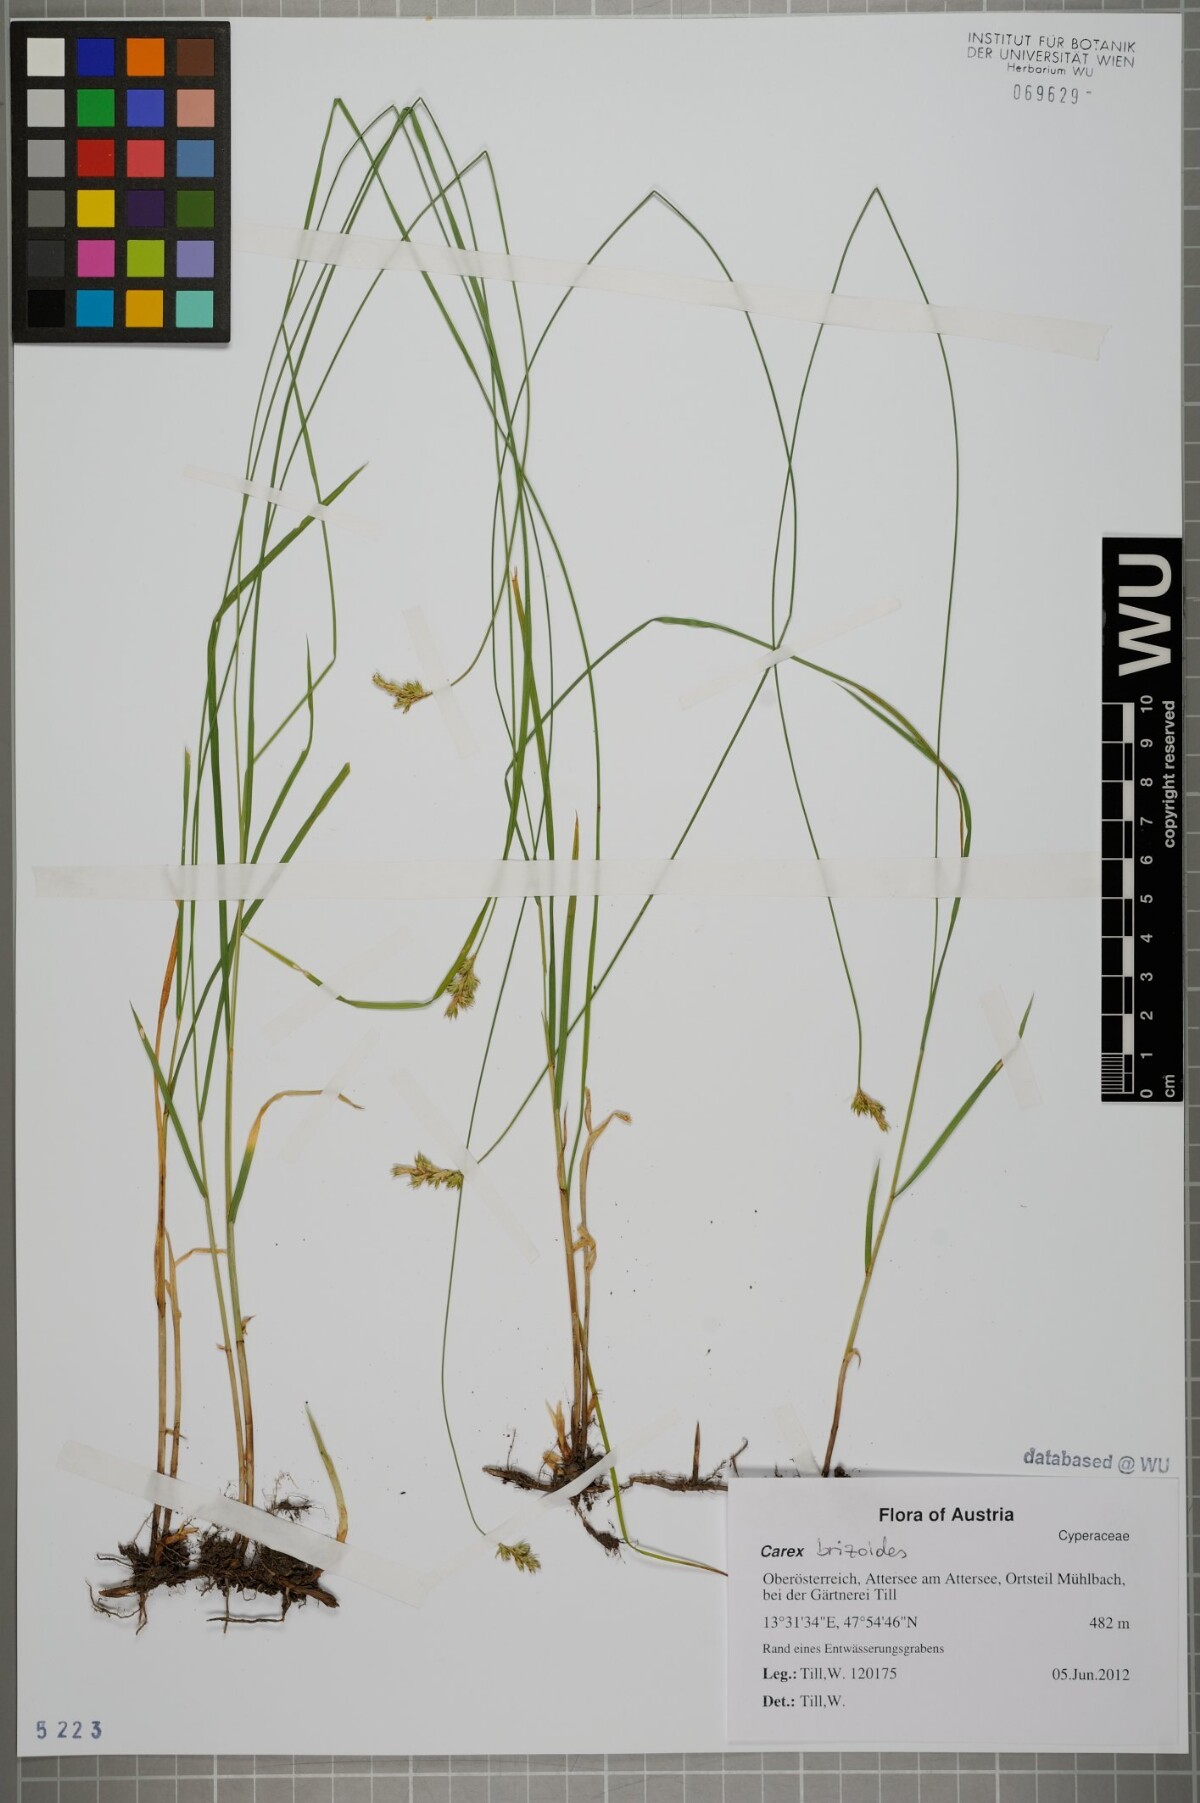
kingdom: Plantae
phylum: Tracheophyta
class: Liliopsida
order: Poales
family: Cyperaceae
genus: Carex
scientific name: Carex brizoides
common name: Quaking-grass sedge
